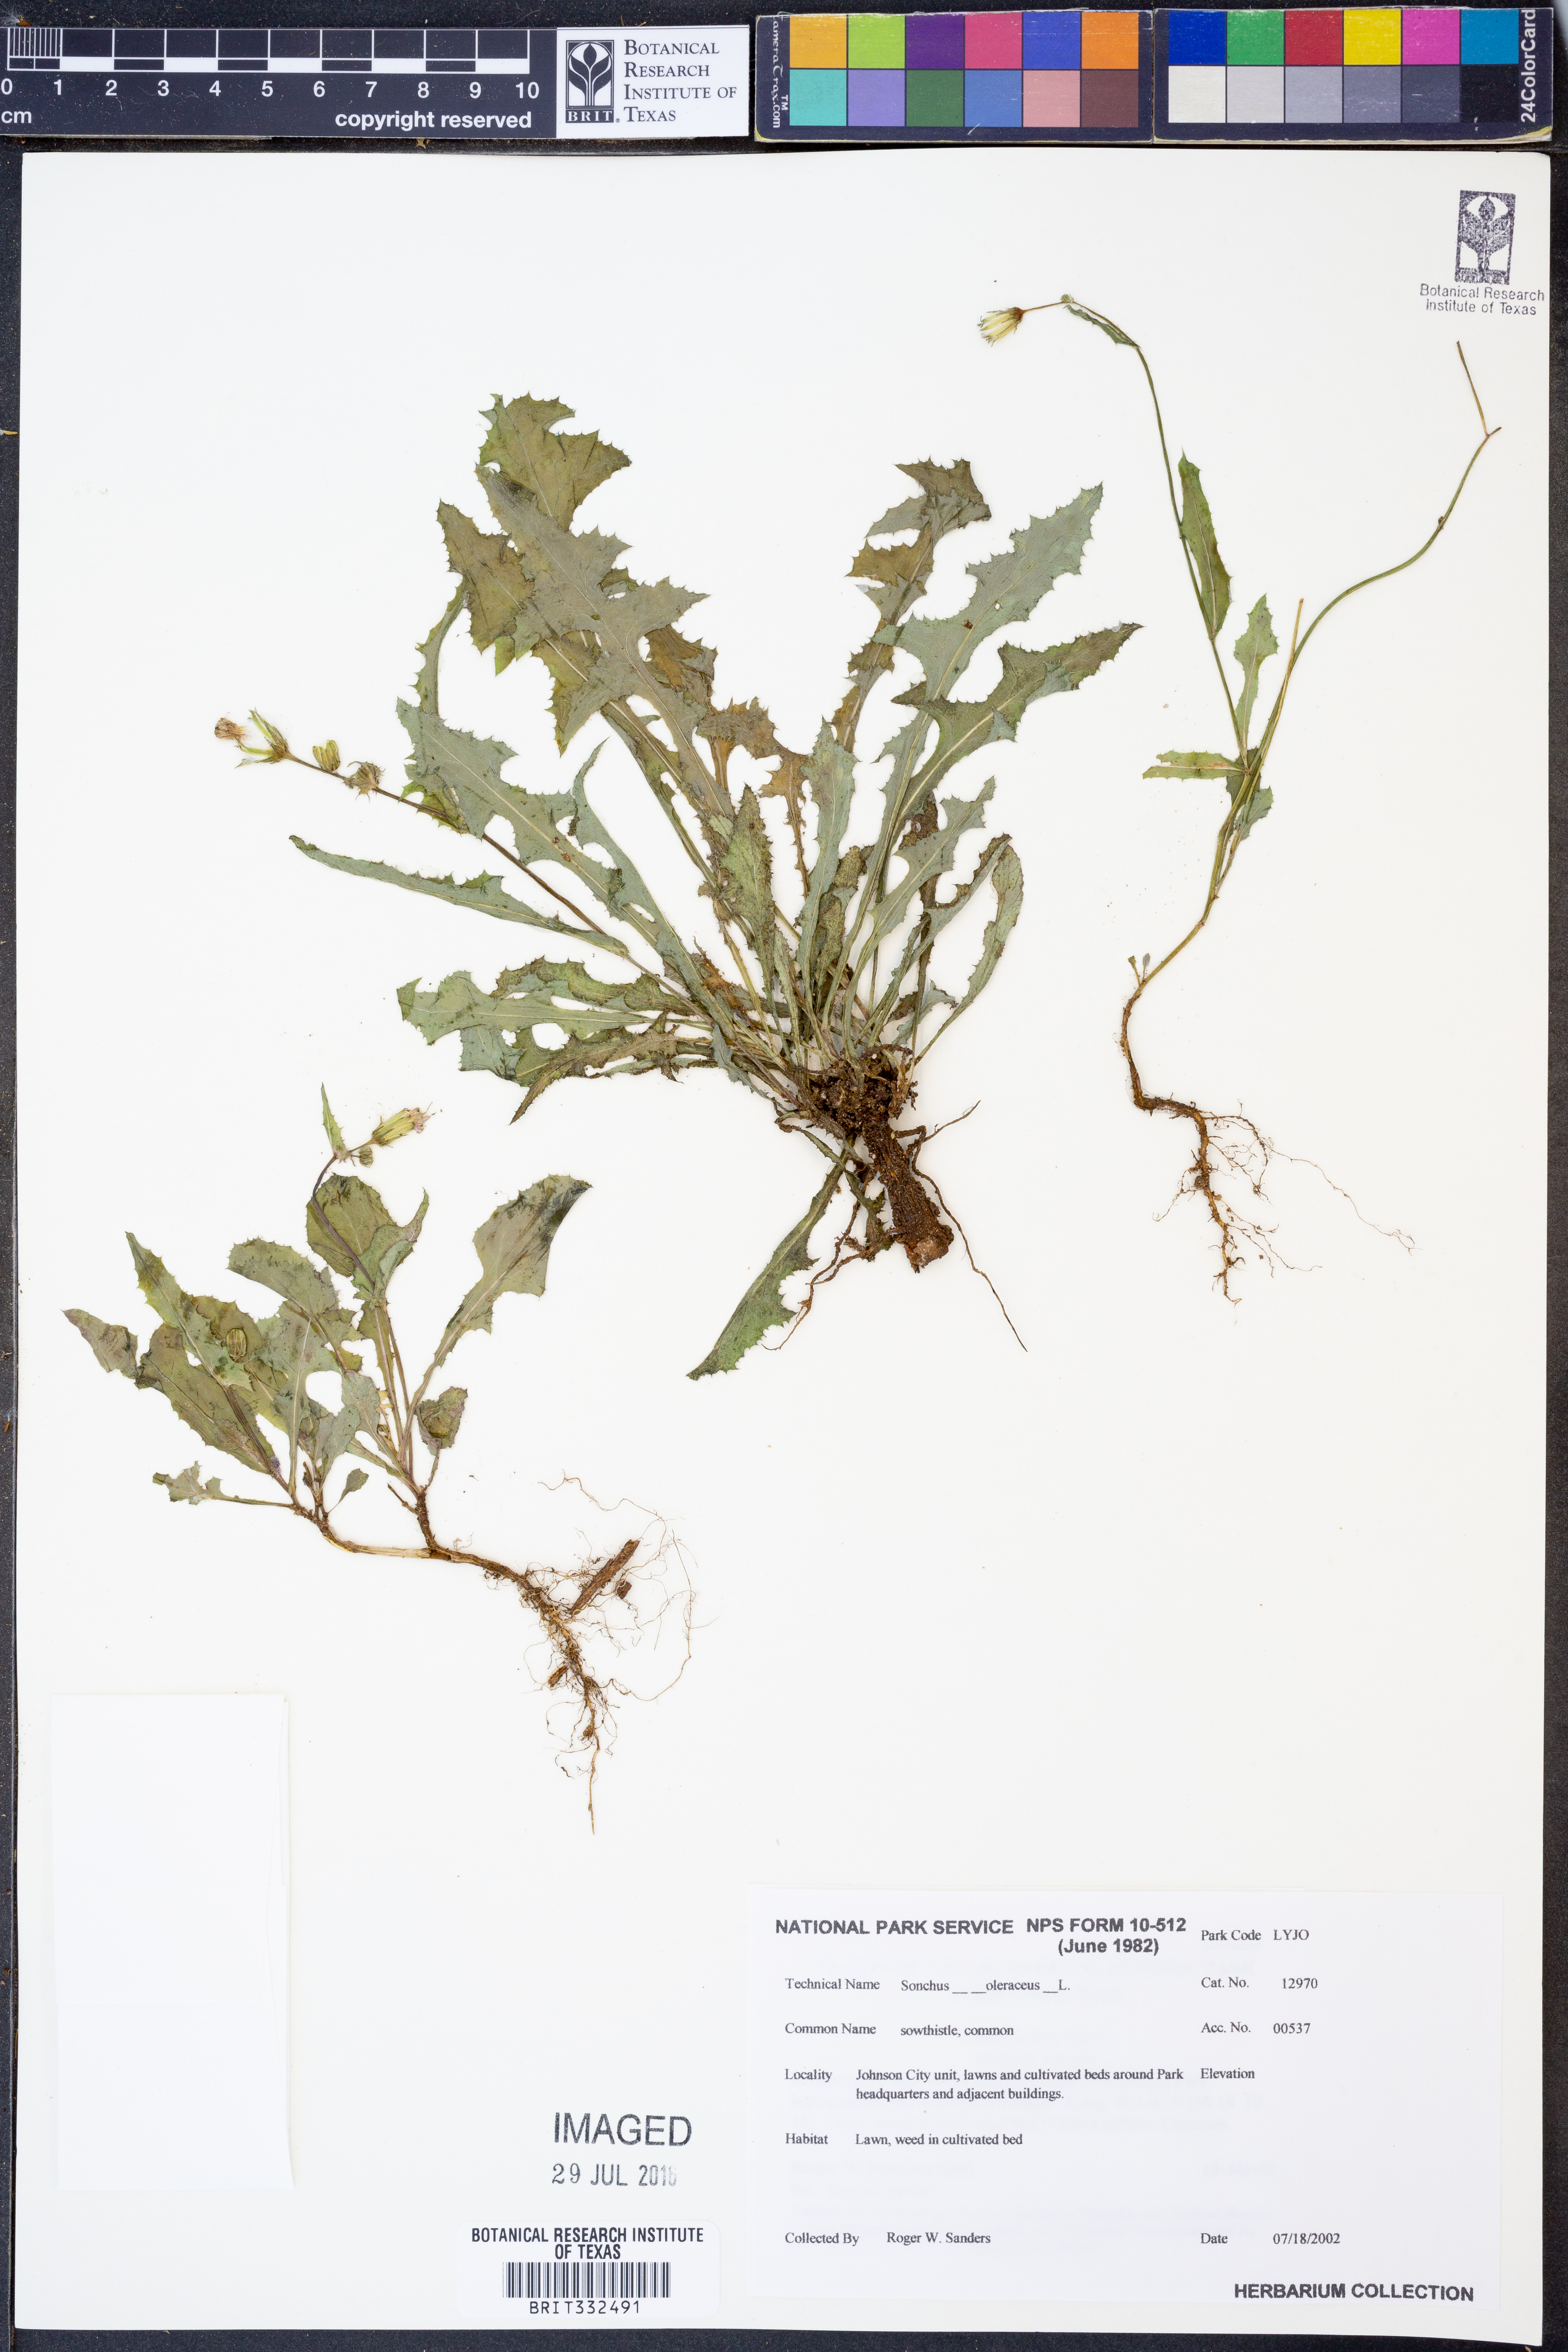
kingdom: Plantae
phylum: Tracheophyta
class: Magnoliopsida
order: Asterales
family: Asteraceae
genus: Sonchus
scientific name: Sonchus oleraceus
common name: Common sowthistle
